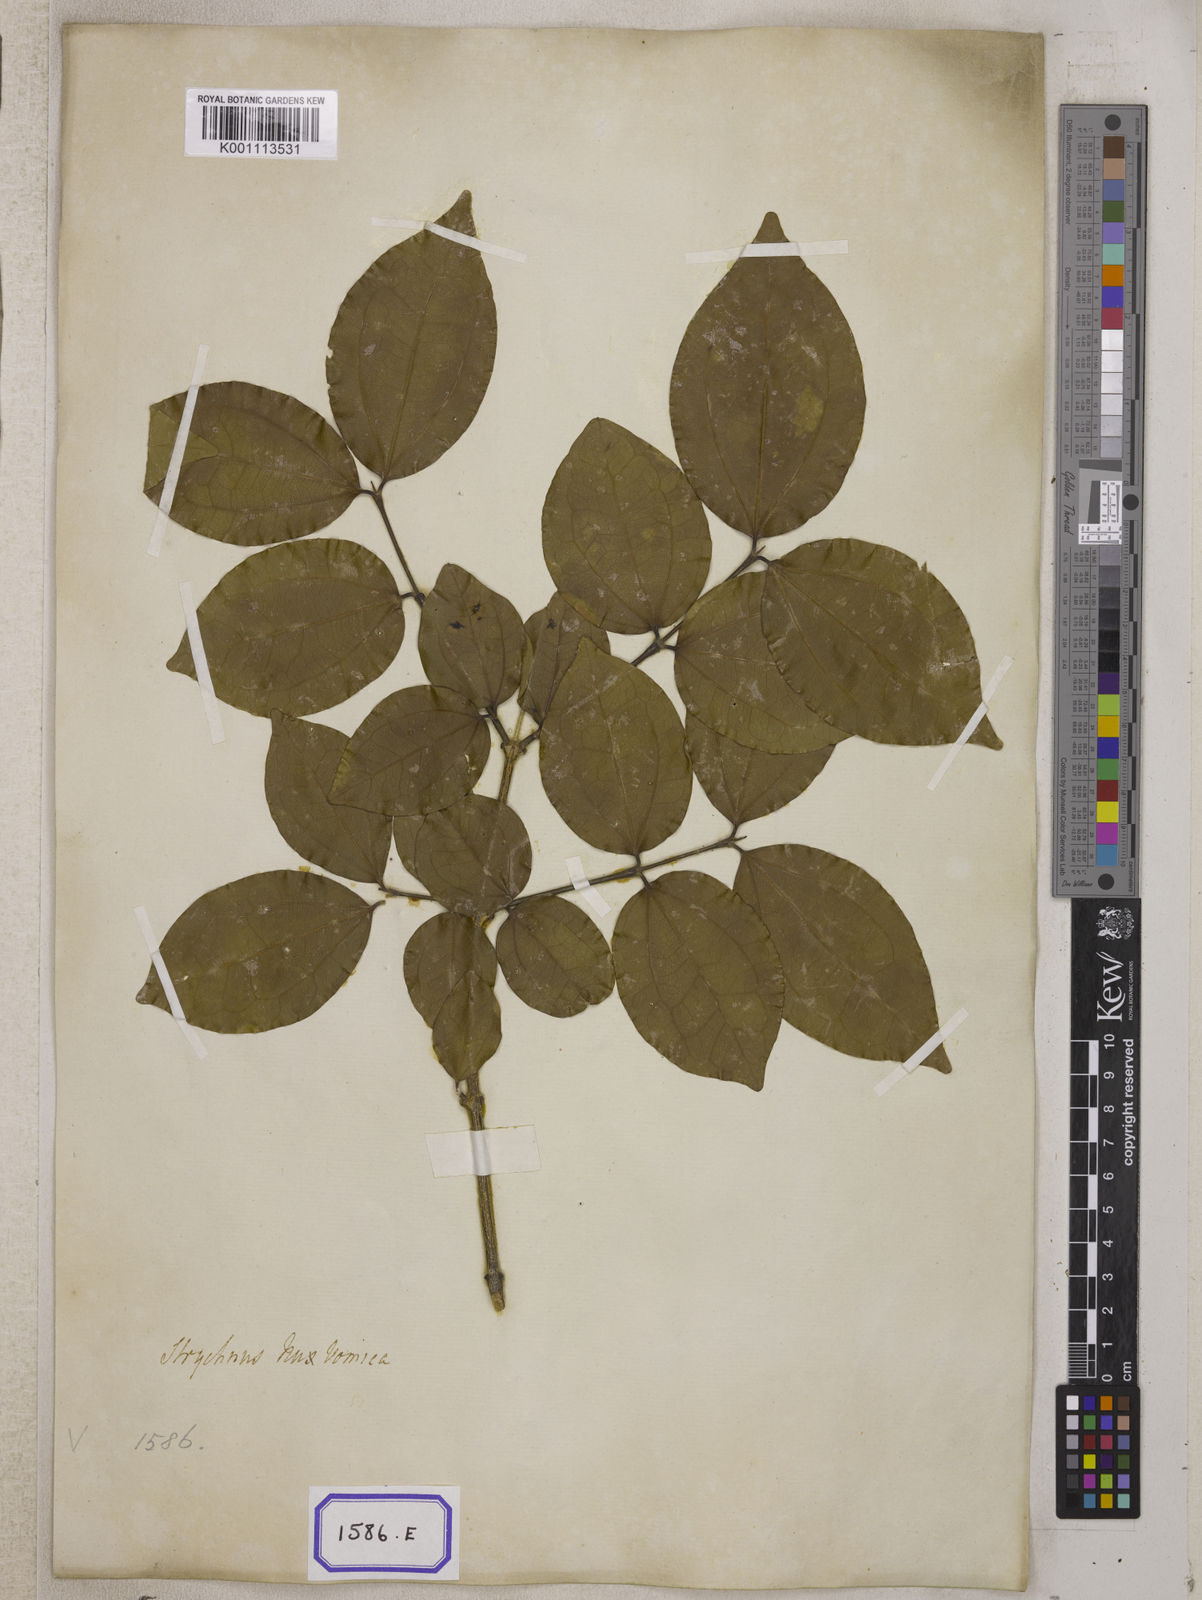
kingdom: Plantae
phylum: Tracheophyta
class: Magnoliopsida
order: Gentianales
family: Loganiaceae
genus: Strychnos
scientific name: Strychnos nux-vomica
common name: Strychninetree
